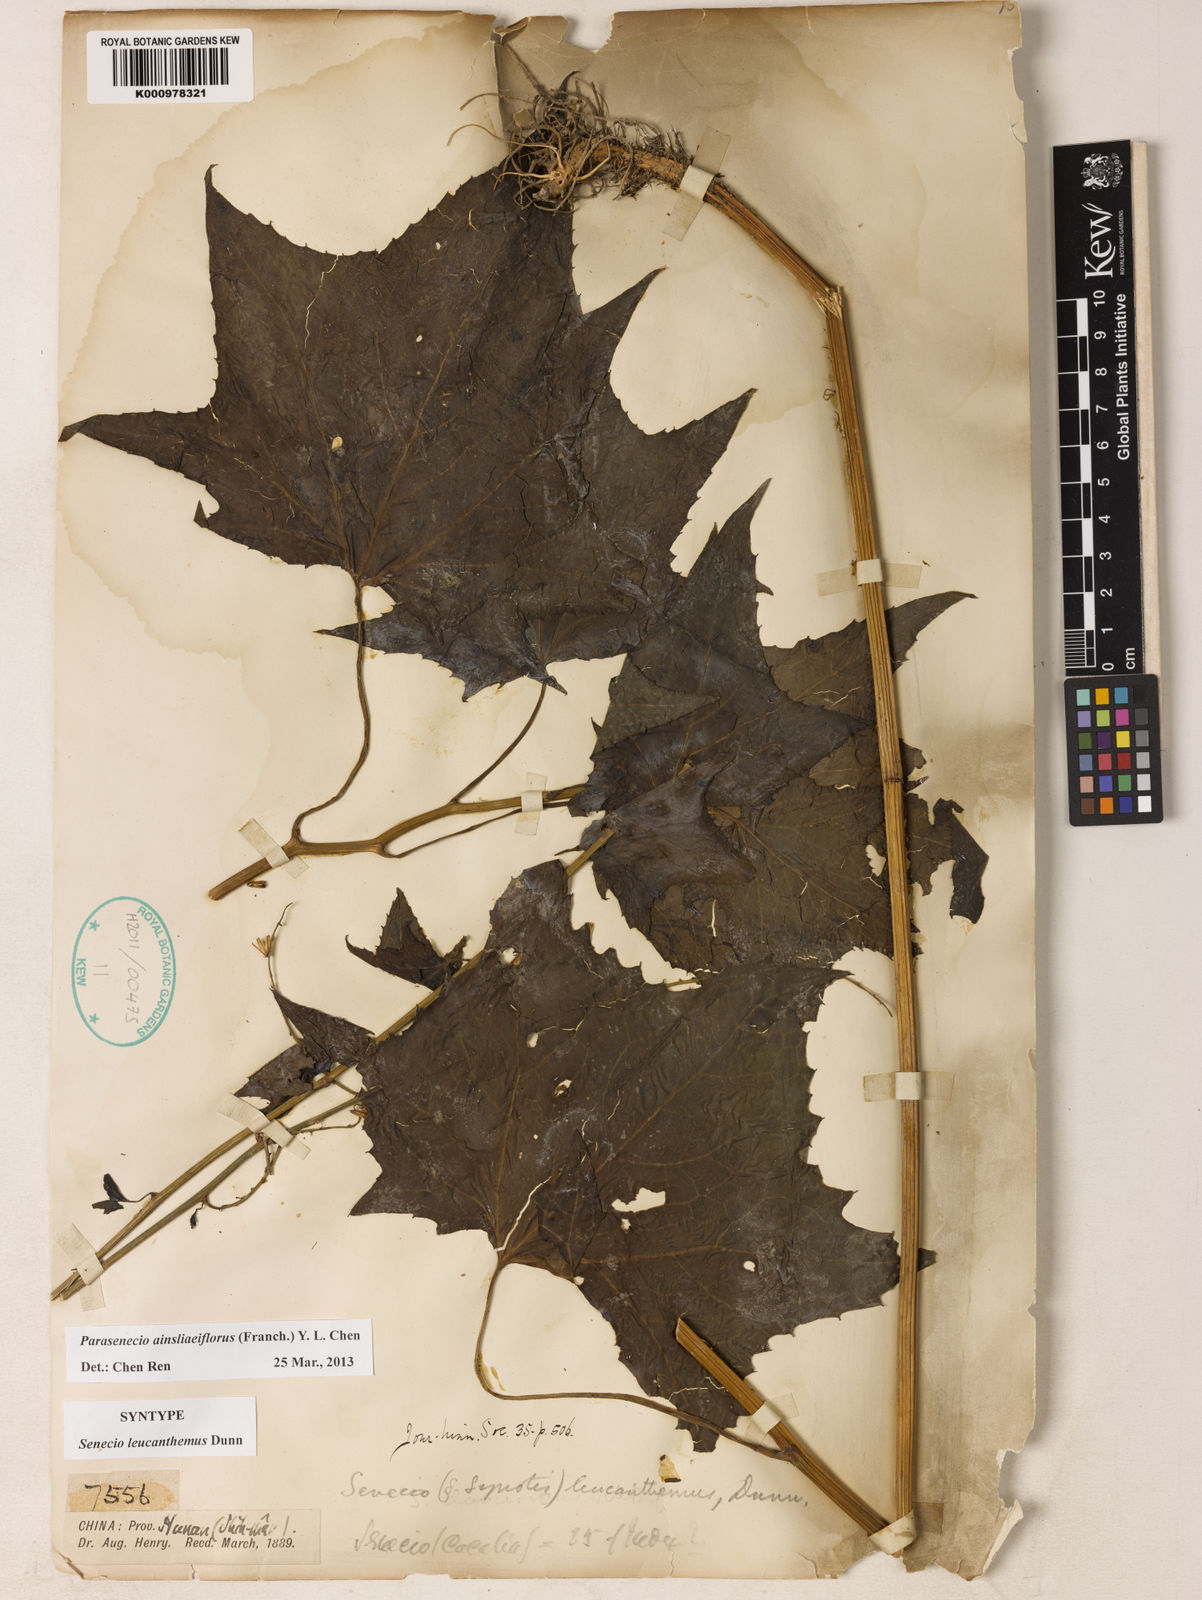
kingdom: Plantae
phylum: Tracheophyta
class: Magnoliopsida
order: Asterales
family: Asteraceae
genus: Parasenecio
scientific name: Parasenecio
